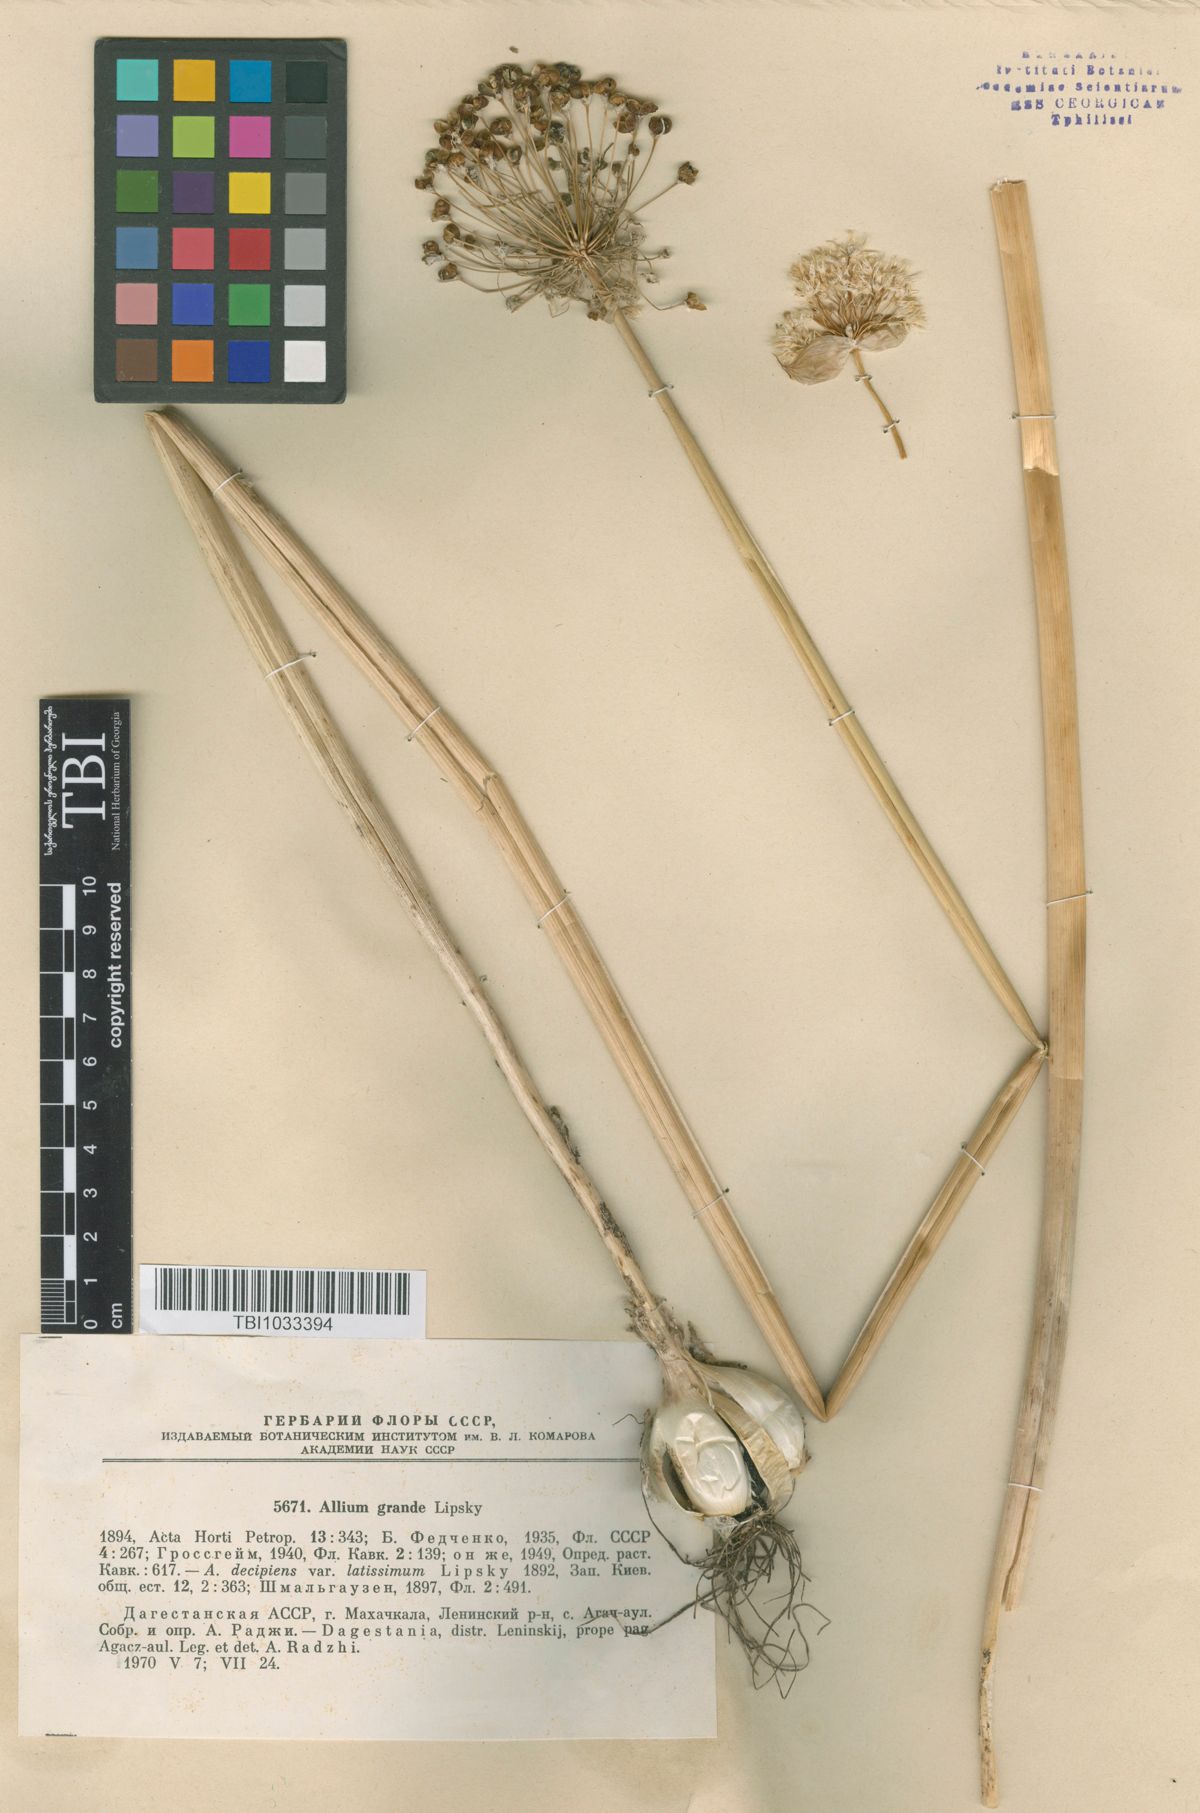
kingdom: Plantae
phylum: Tracheophyta
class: Liliopsida
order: Asparagales
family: Amaryllidaceae
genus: Allium
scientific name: Allium grande
